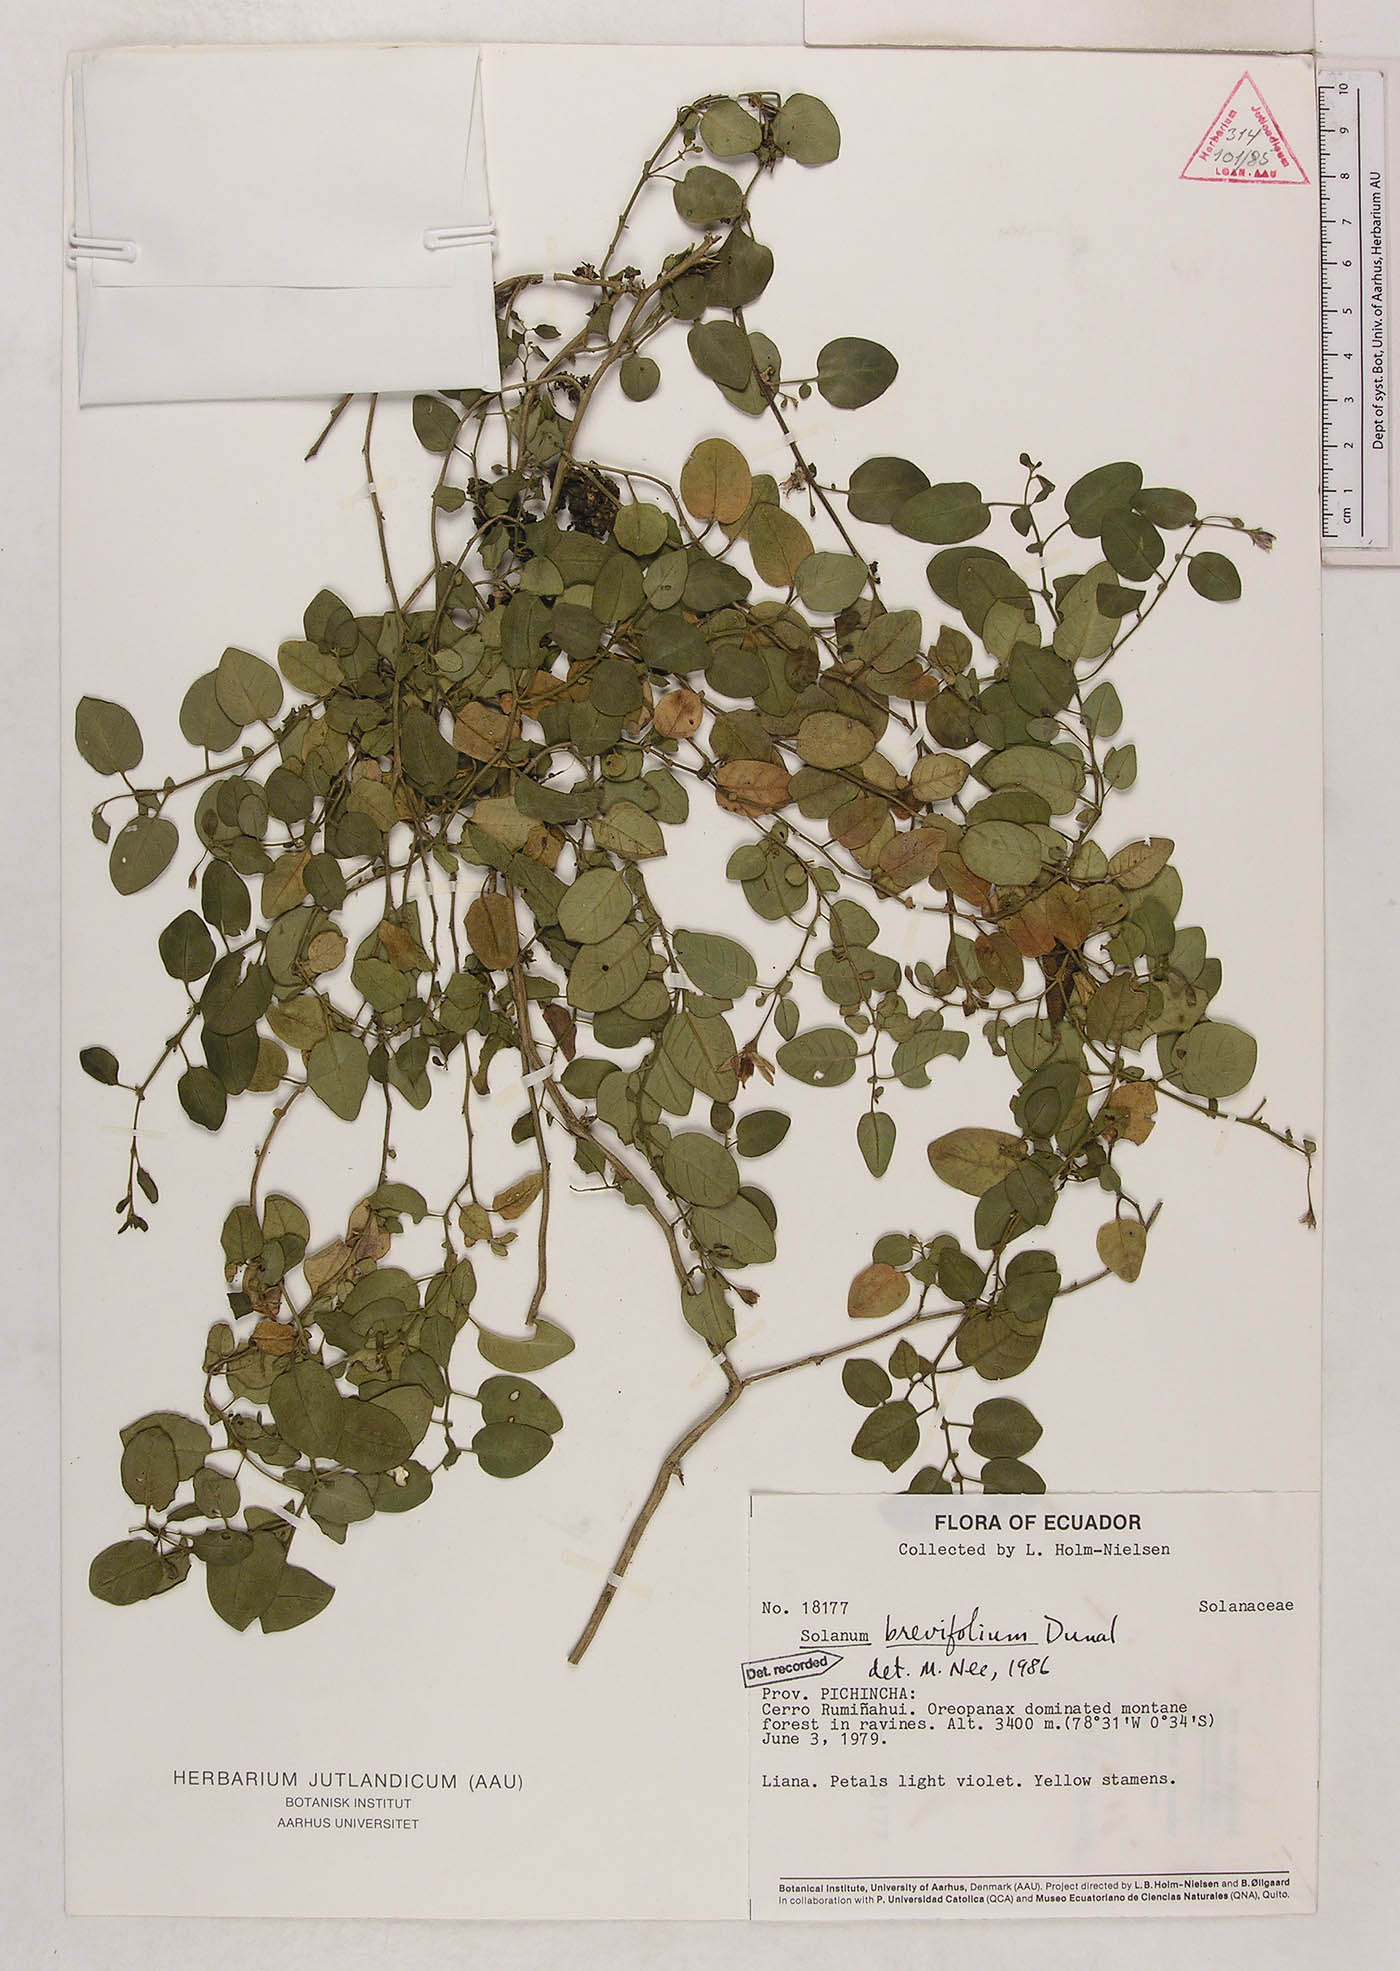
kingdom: Plantae
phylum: Tracheophyta
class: Magnoliopsida
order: Solanales
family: Solanaceae
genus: Solanum
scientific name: Solanum brevifolium
